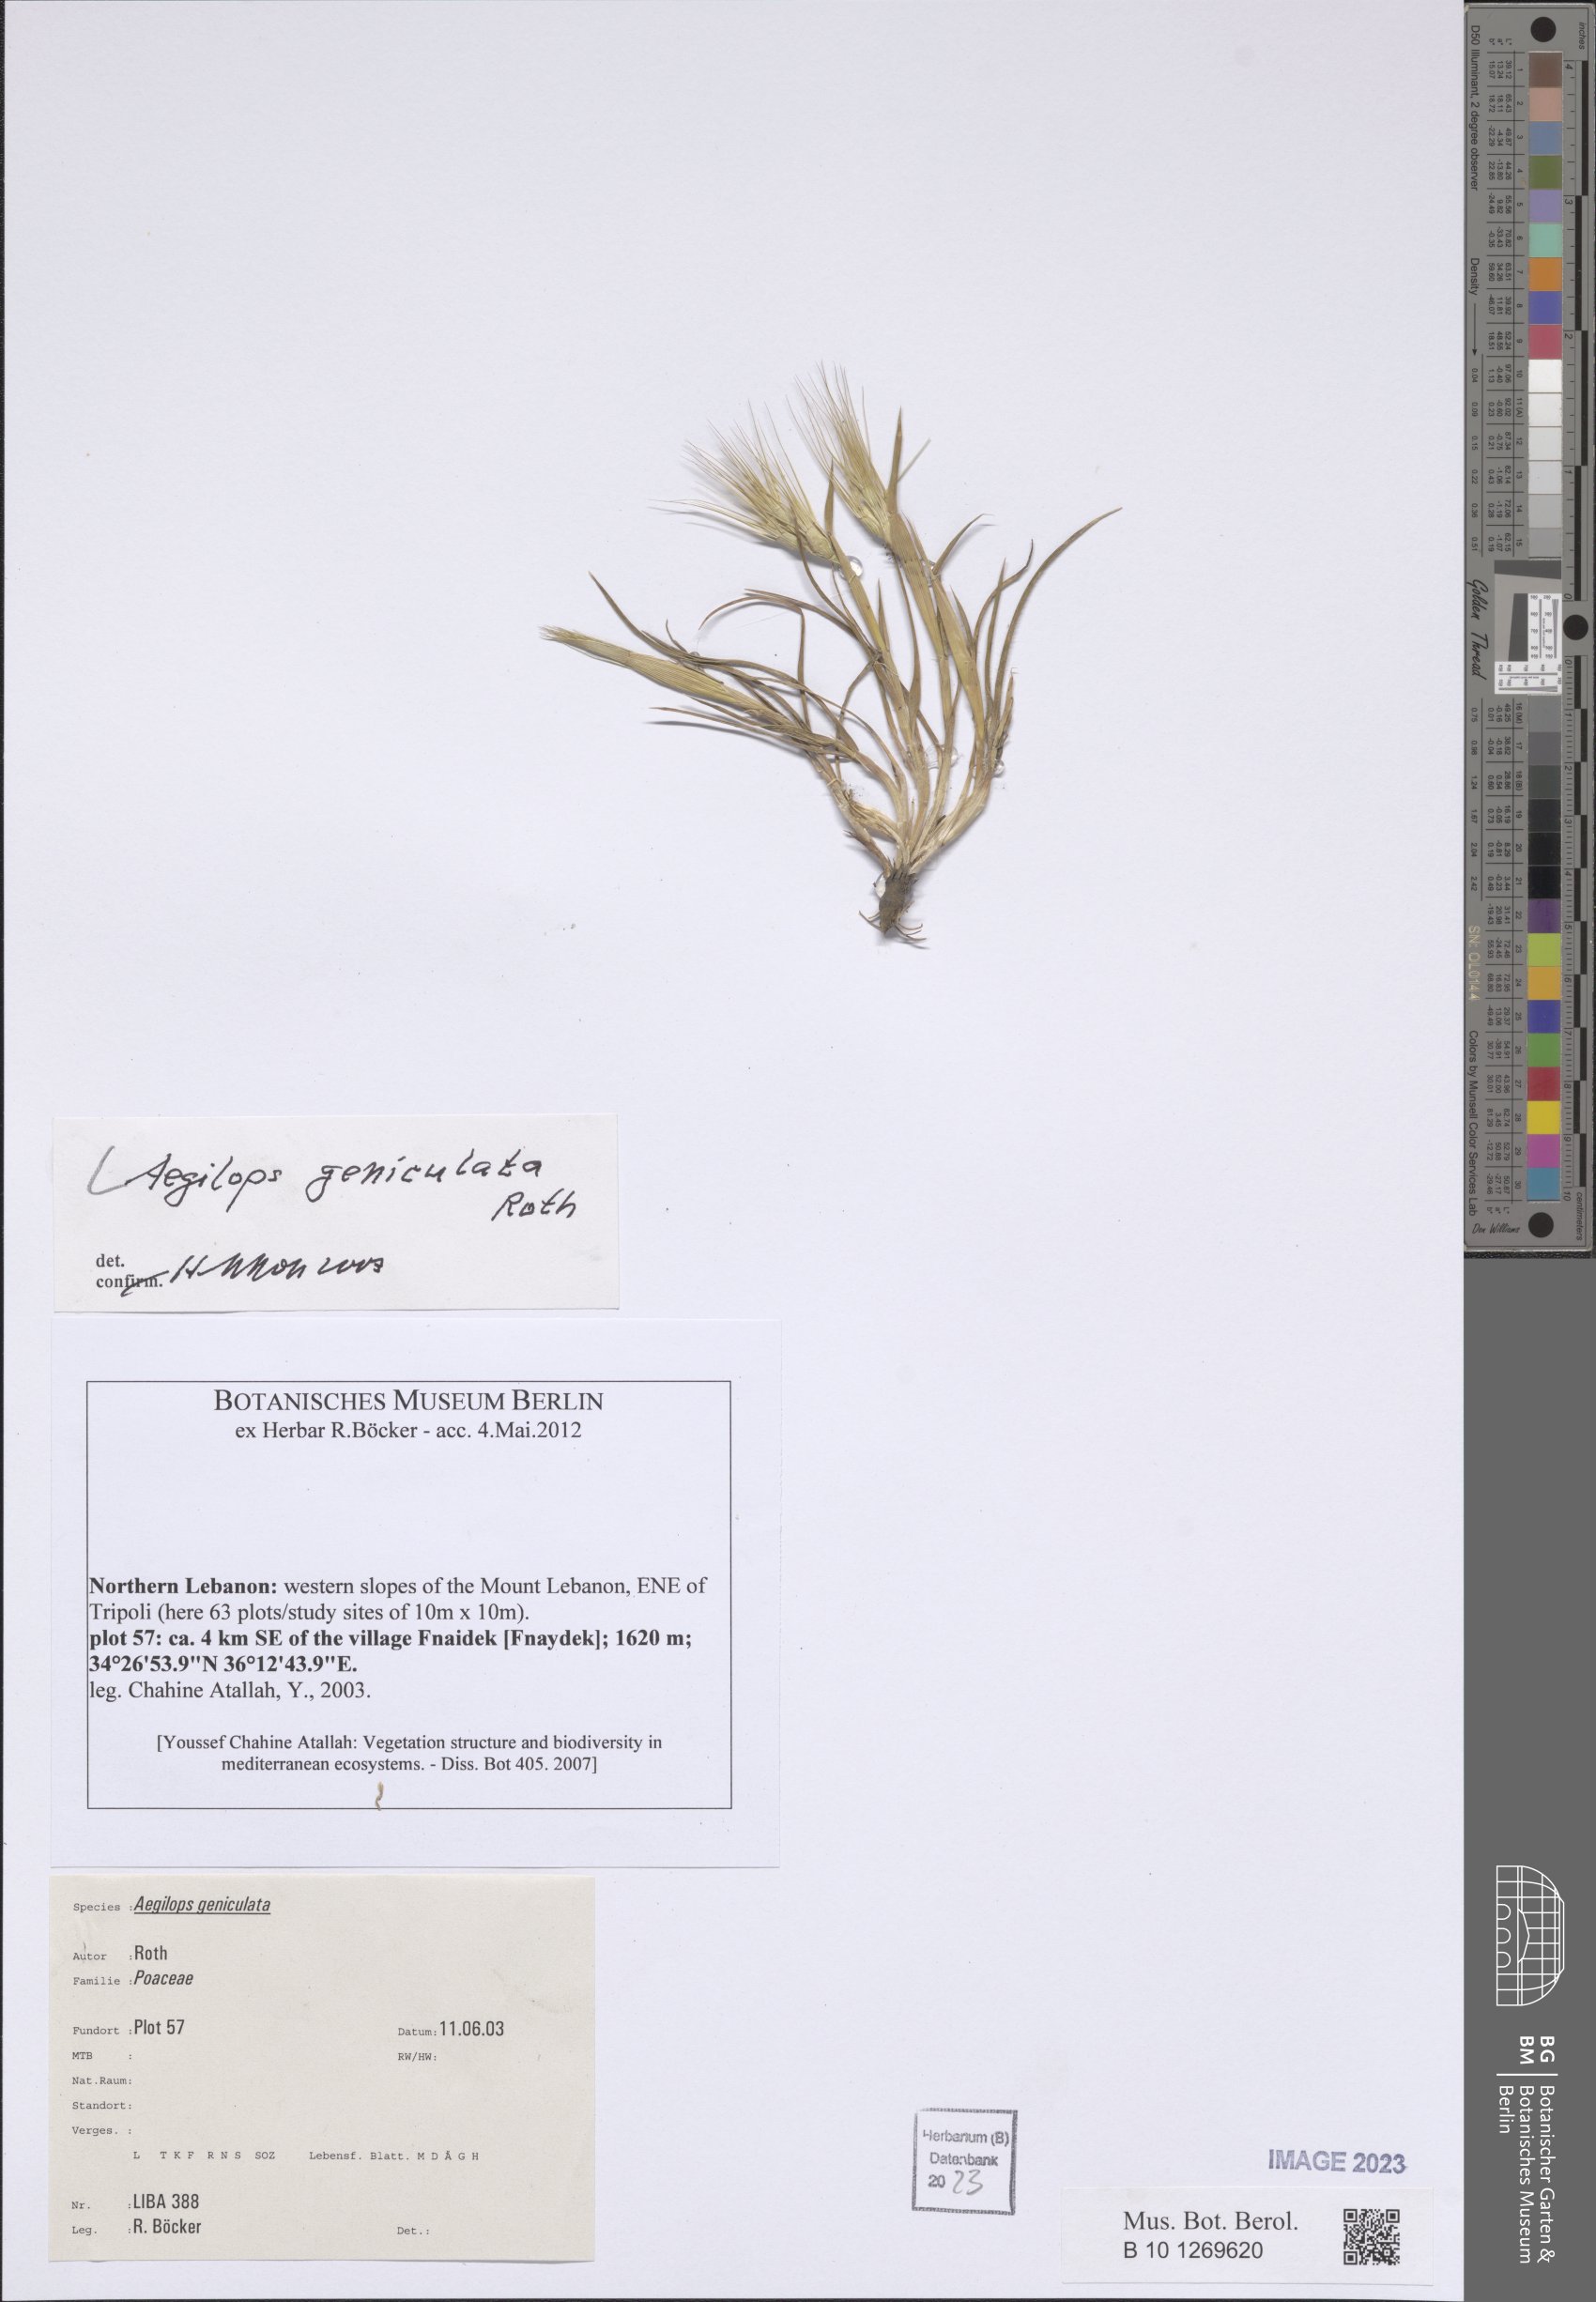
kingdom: Plantae
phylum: Tracheophyta
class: Liliopsida
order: Poales
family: Poaceae
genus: Aegilops
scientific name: Aegilops geniculata
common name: Ovate goat grass
